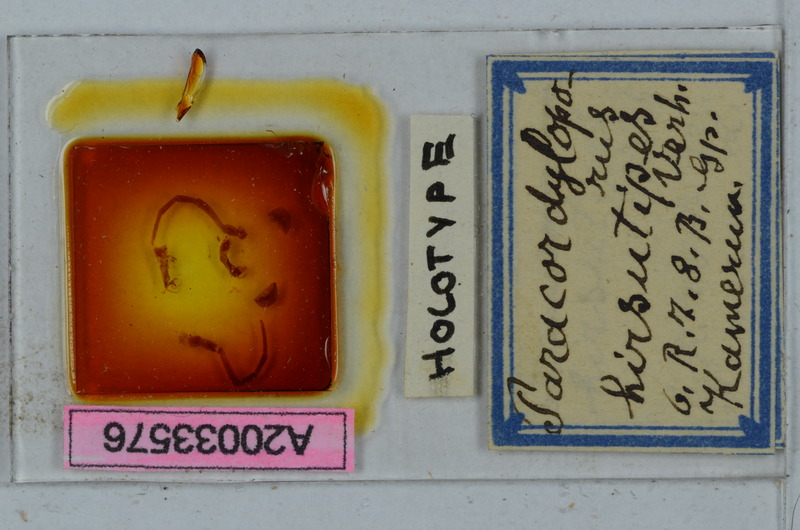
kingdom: Animalia
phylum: Arthropoda
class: Diplopoda
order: Polydesmida
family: Chelodesmidae
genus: Paracordyloporus
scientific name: Paracordyloporus porati
